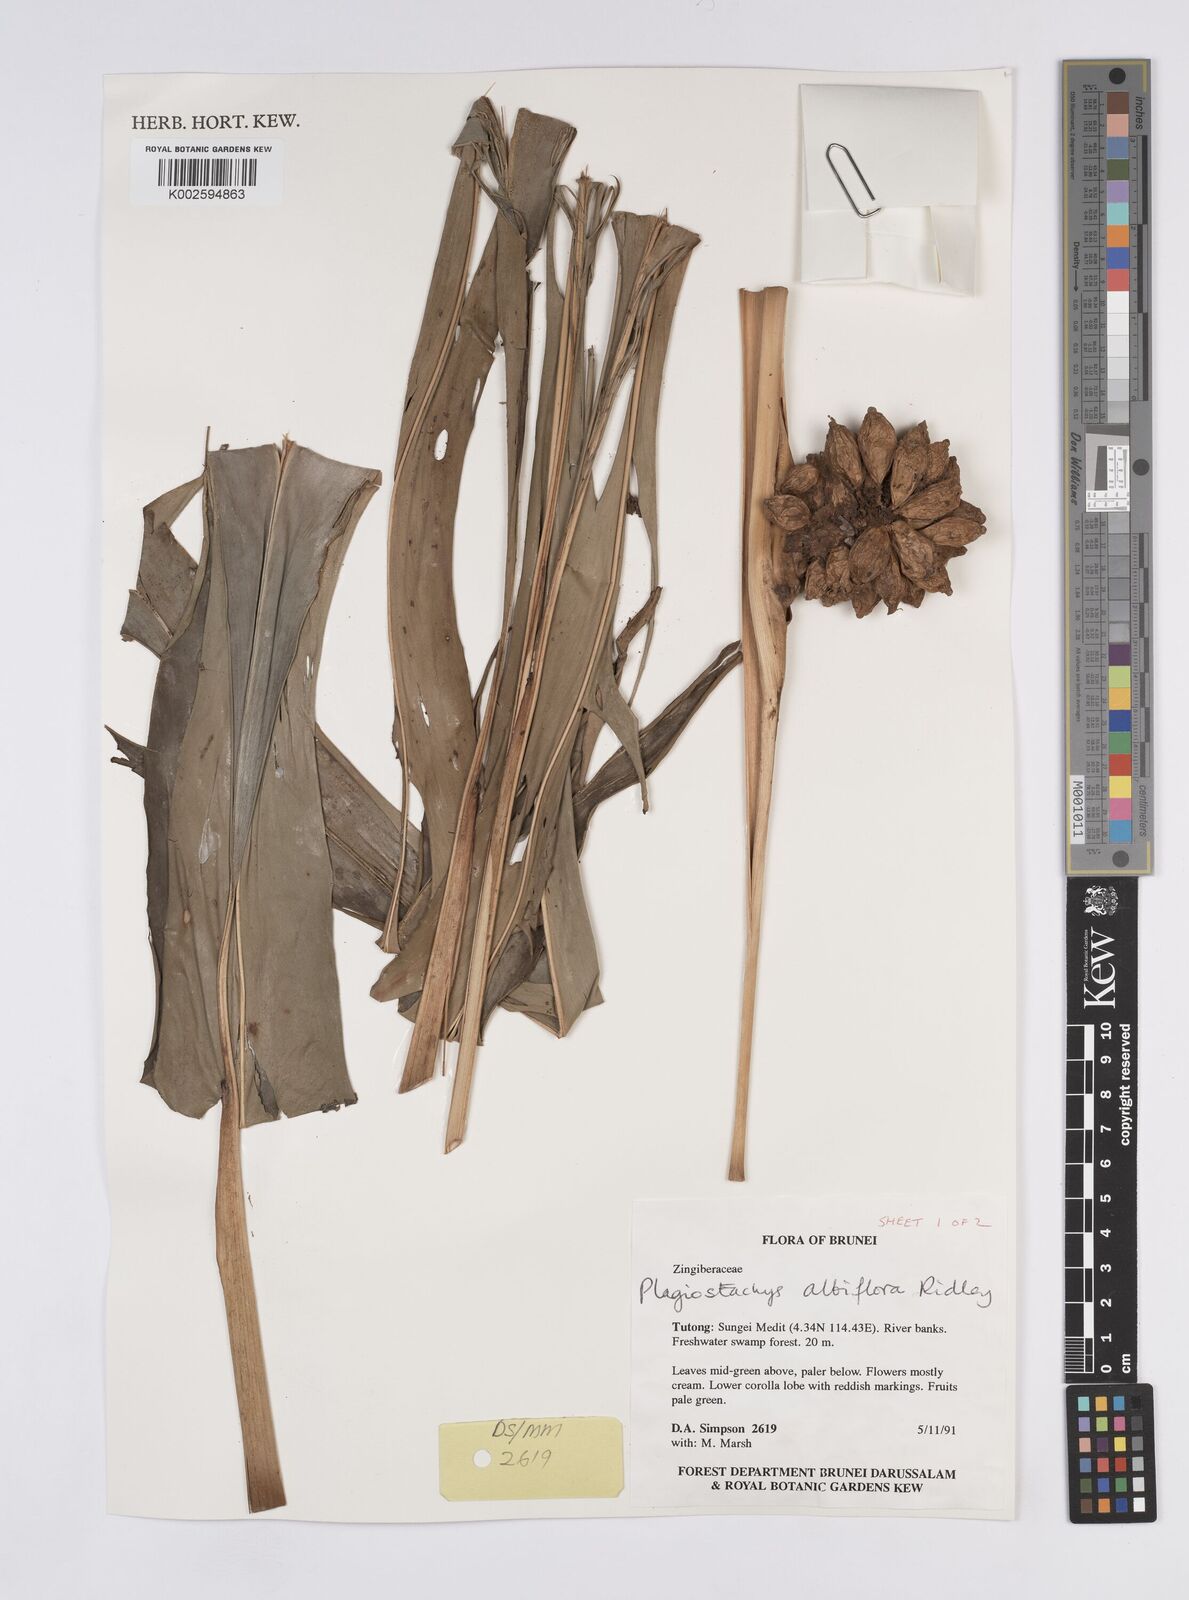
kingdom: Plantae
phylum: Tracheophyta
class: Liliopsida
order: Zingiberales
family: Zingiberaceae
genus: Plagiostachys
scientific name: Plagiostachys albiflora
